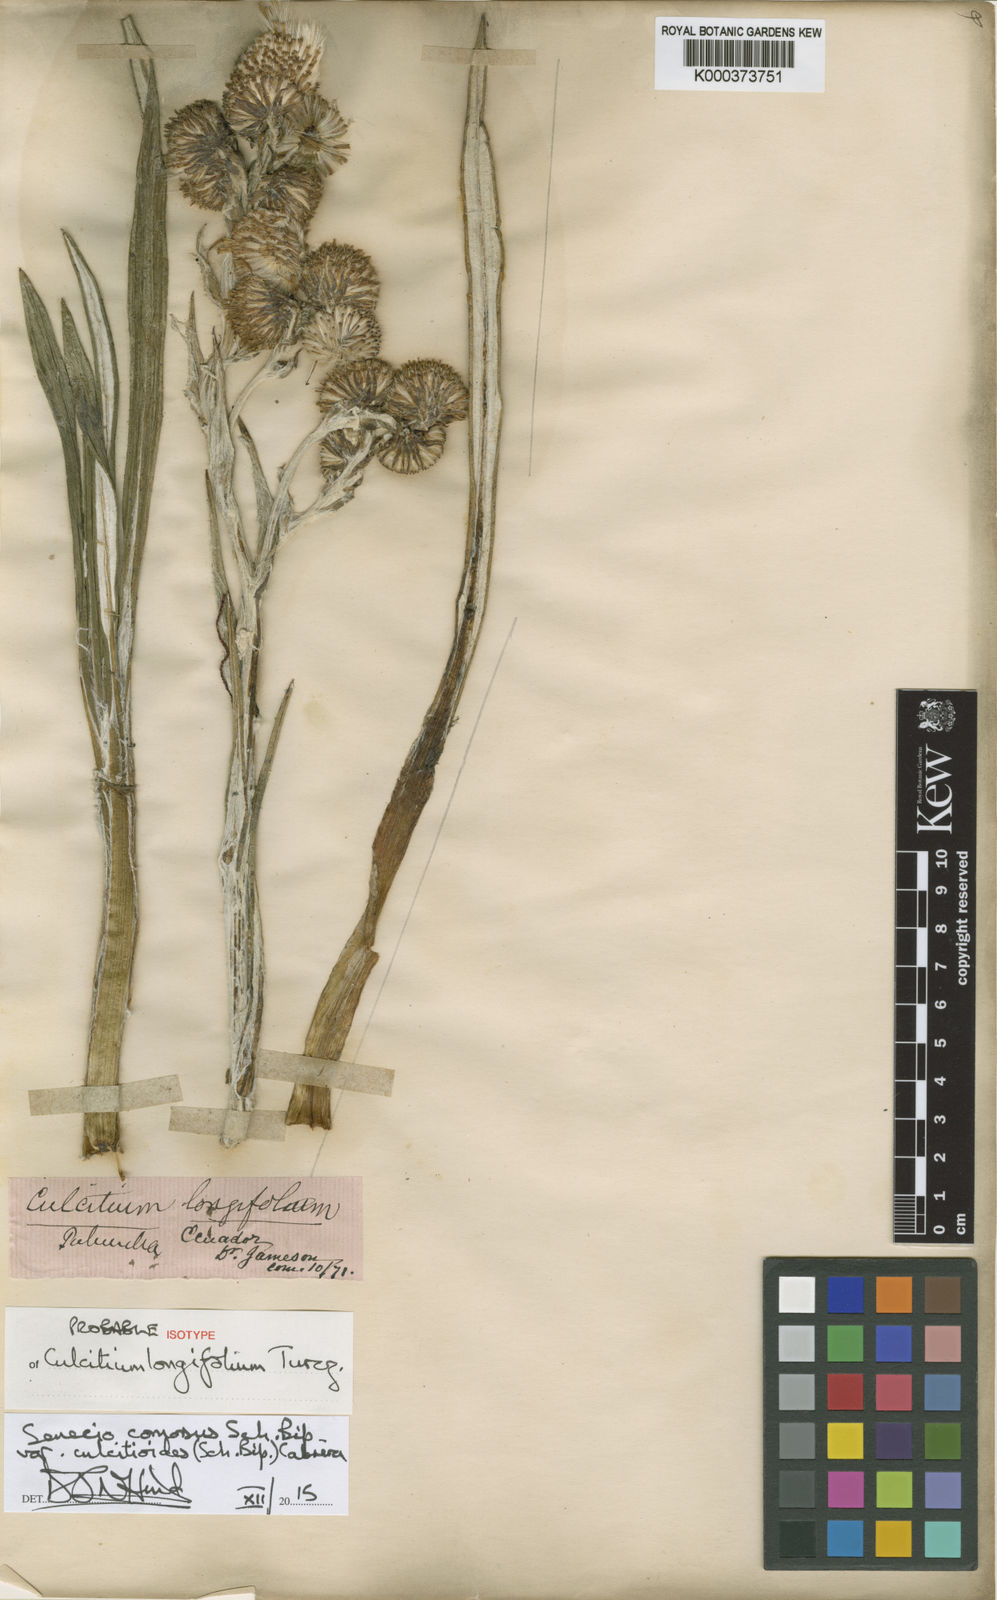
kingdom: Plantae
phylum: Tracheophyta
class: Magnoliopsida
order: Asterales
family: Asteraceae
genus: Senecio
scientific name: Senecio comosus
